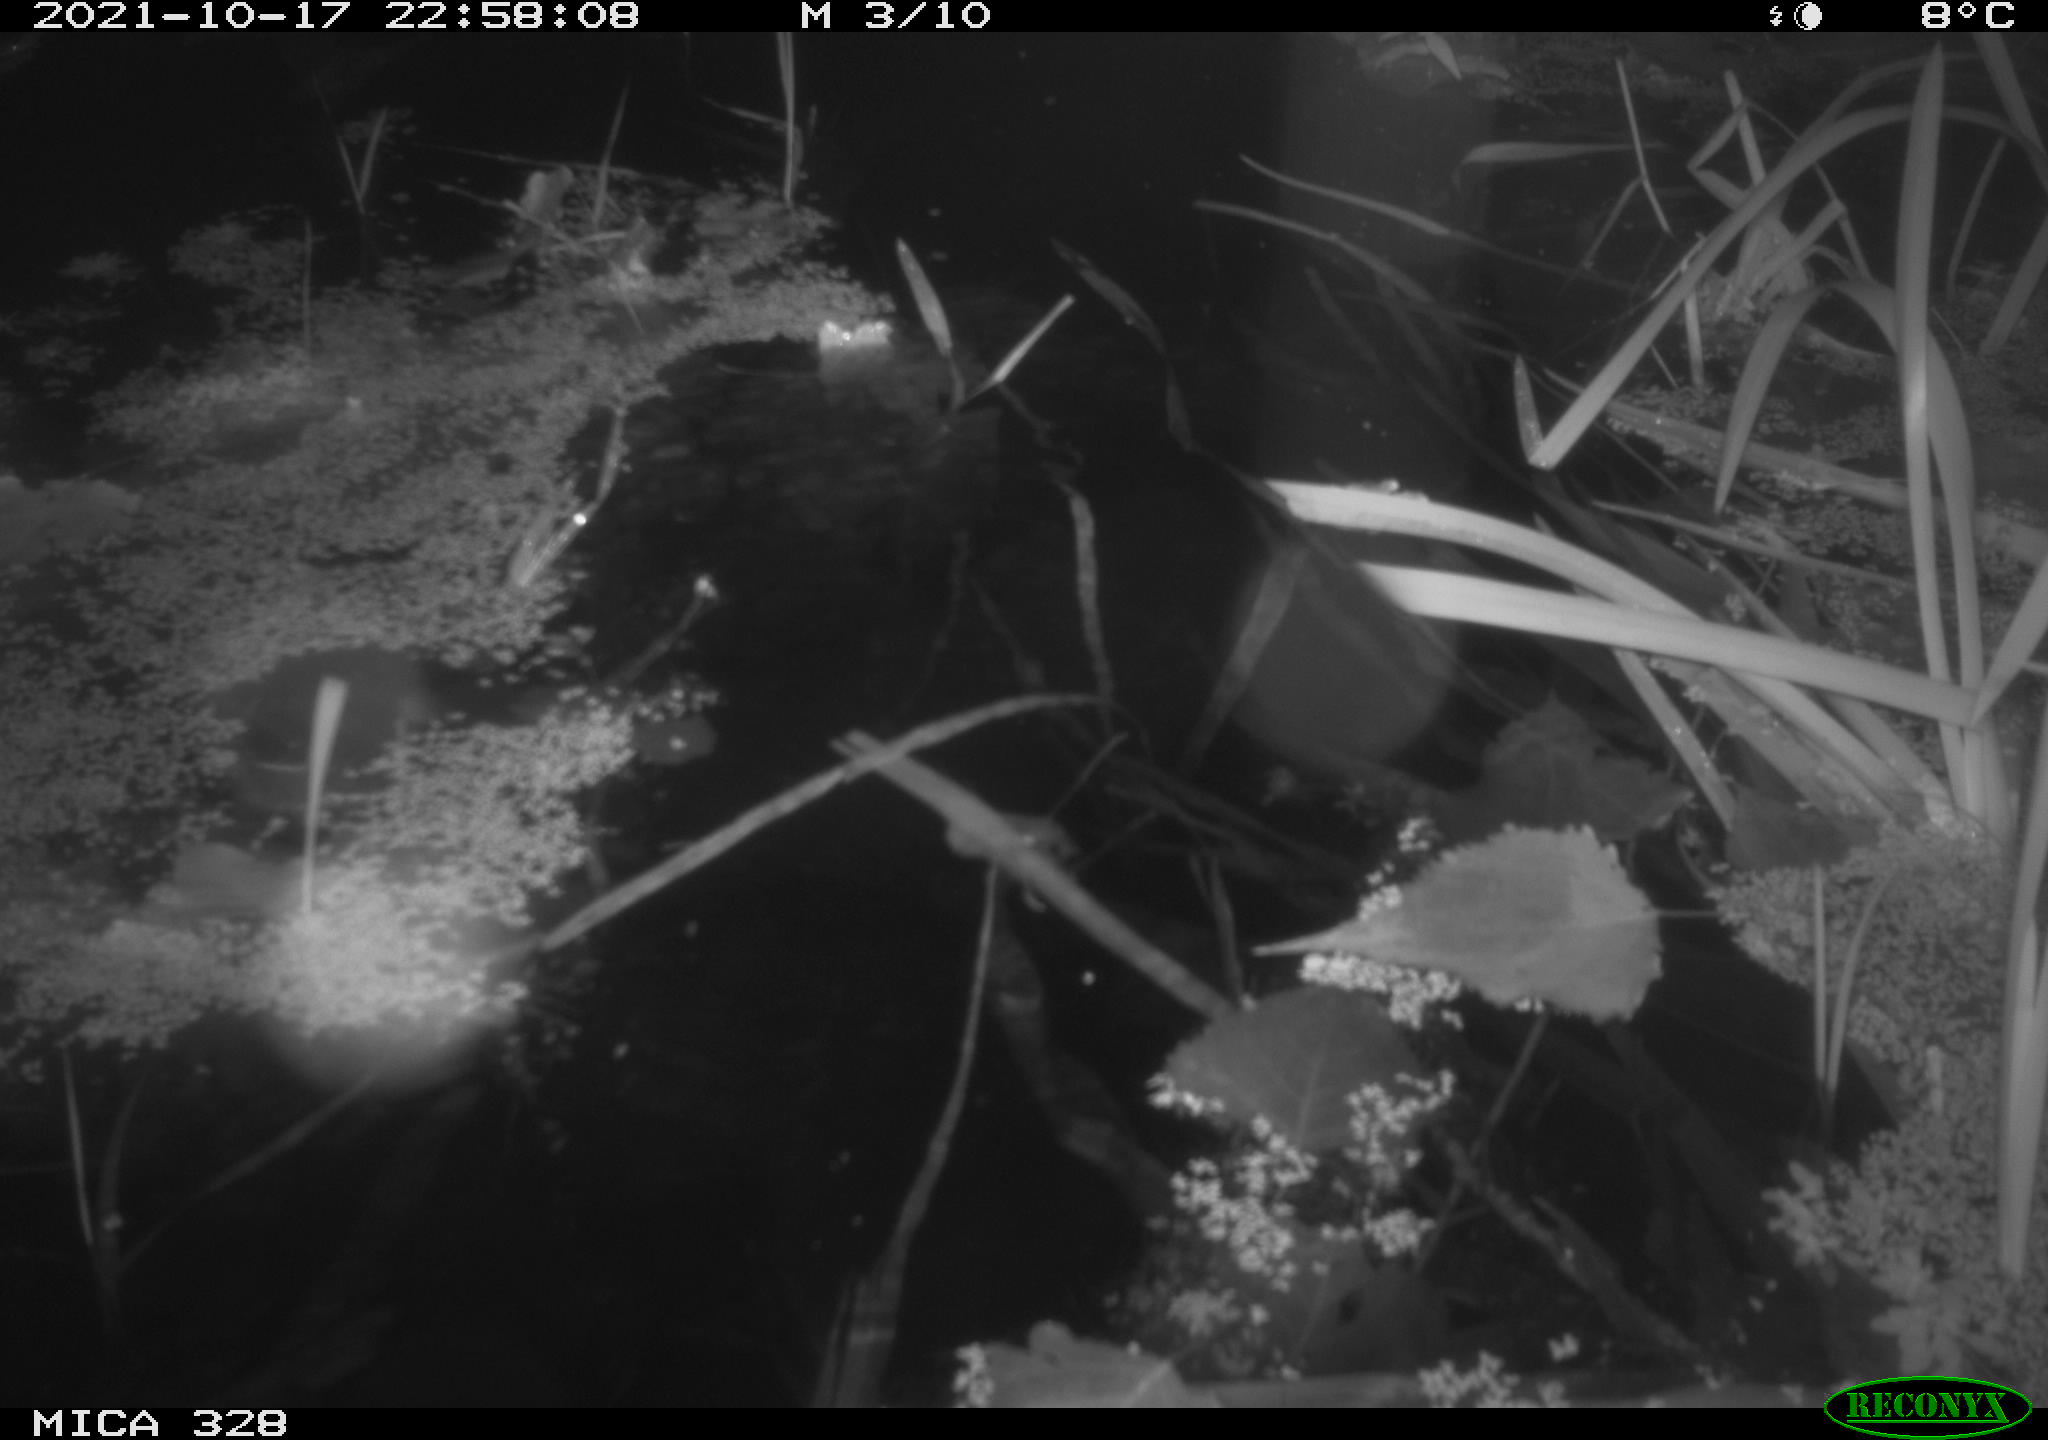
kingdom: Animalia
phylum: Chordata
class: Mammalia
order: Rodentia
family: Cricetidae
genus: Ondatra
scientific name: Ondatra zibethicus
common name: Muskrat
